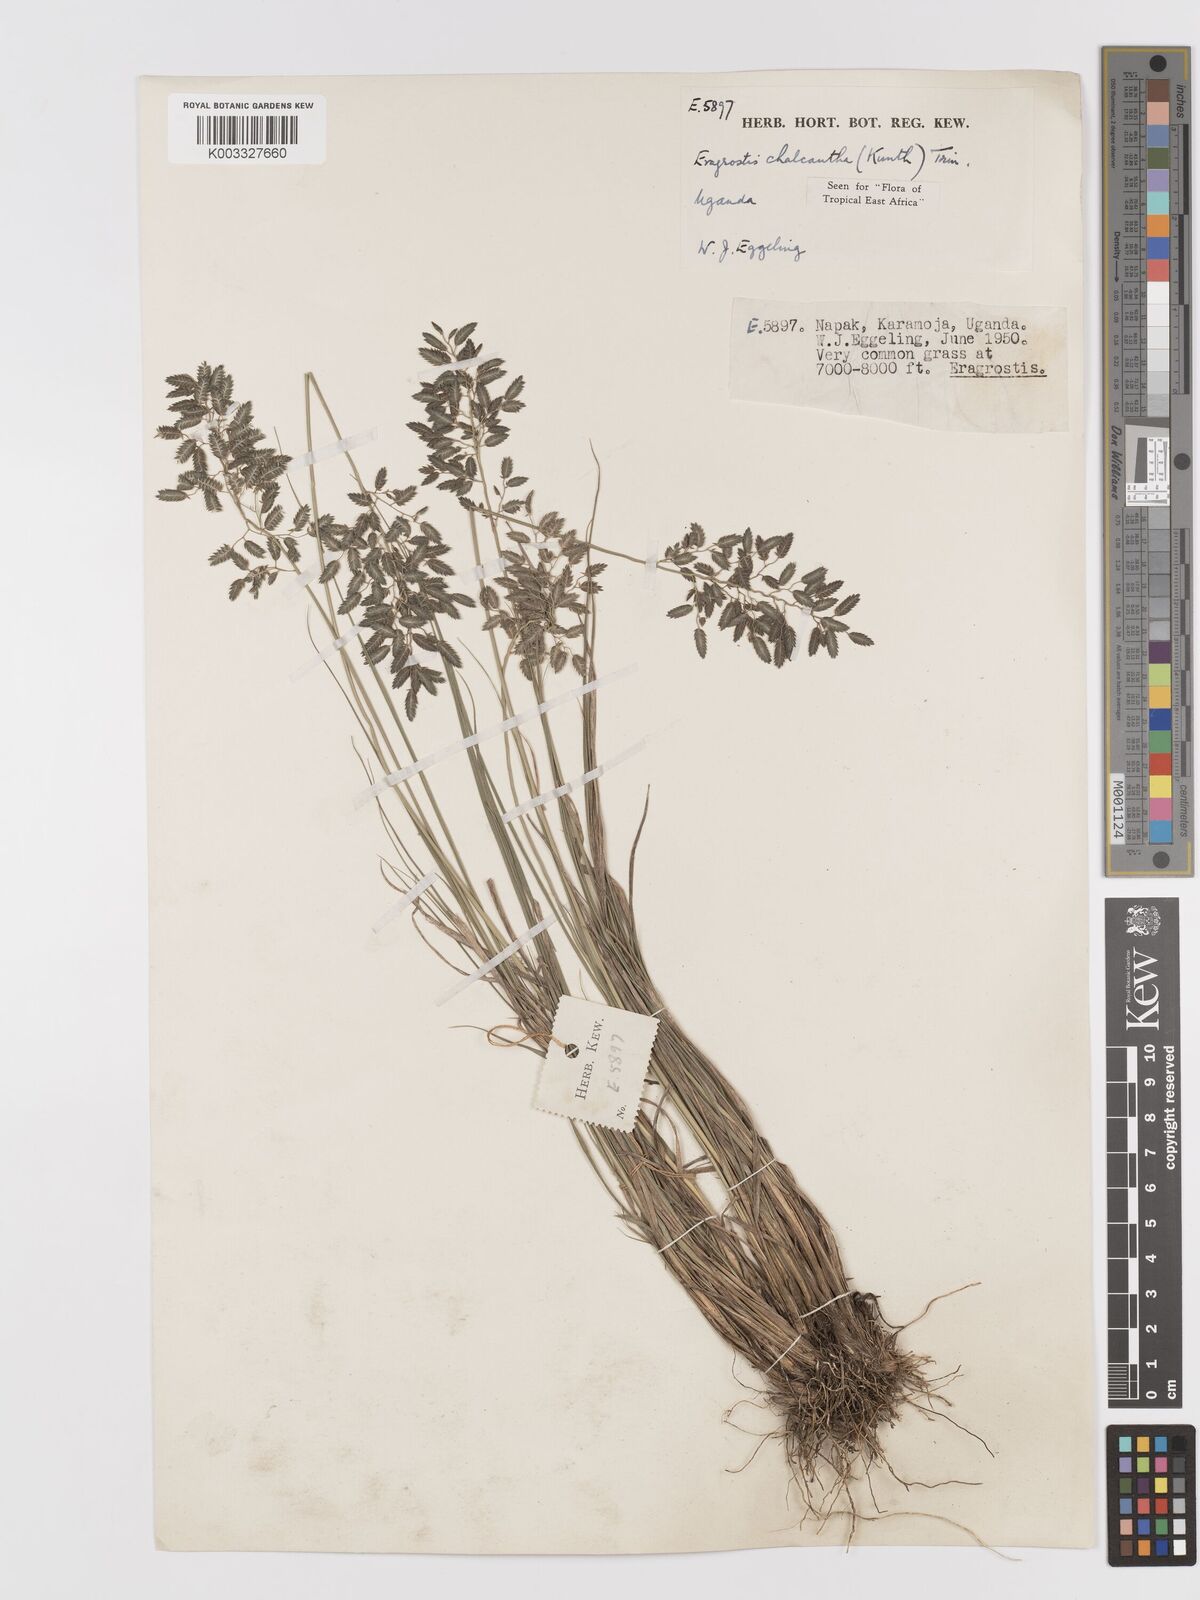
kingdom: Plantae
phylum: Tracheophyta
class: Liliopsida
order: Poales
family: Poaceae
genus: Eragrostis
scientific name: Eragrostis racemosa
